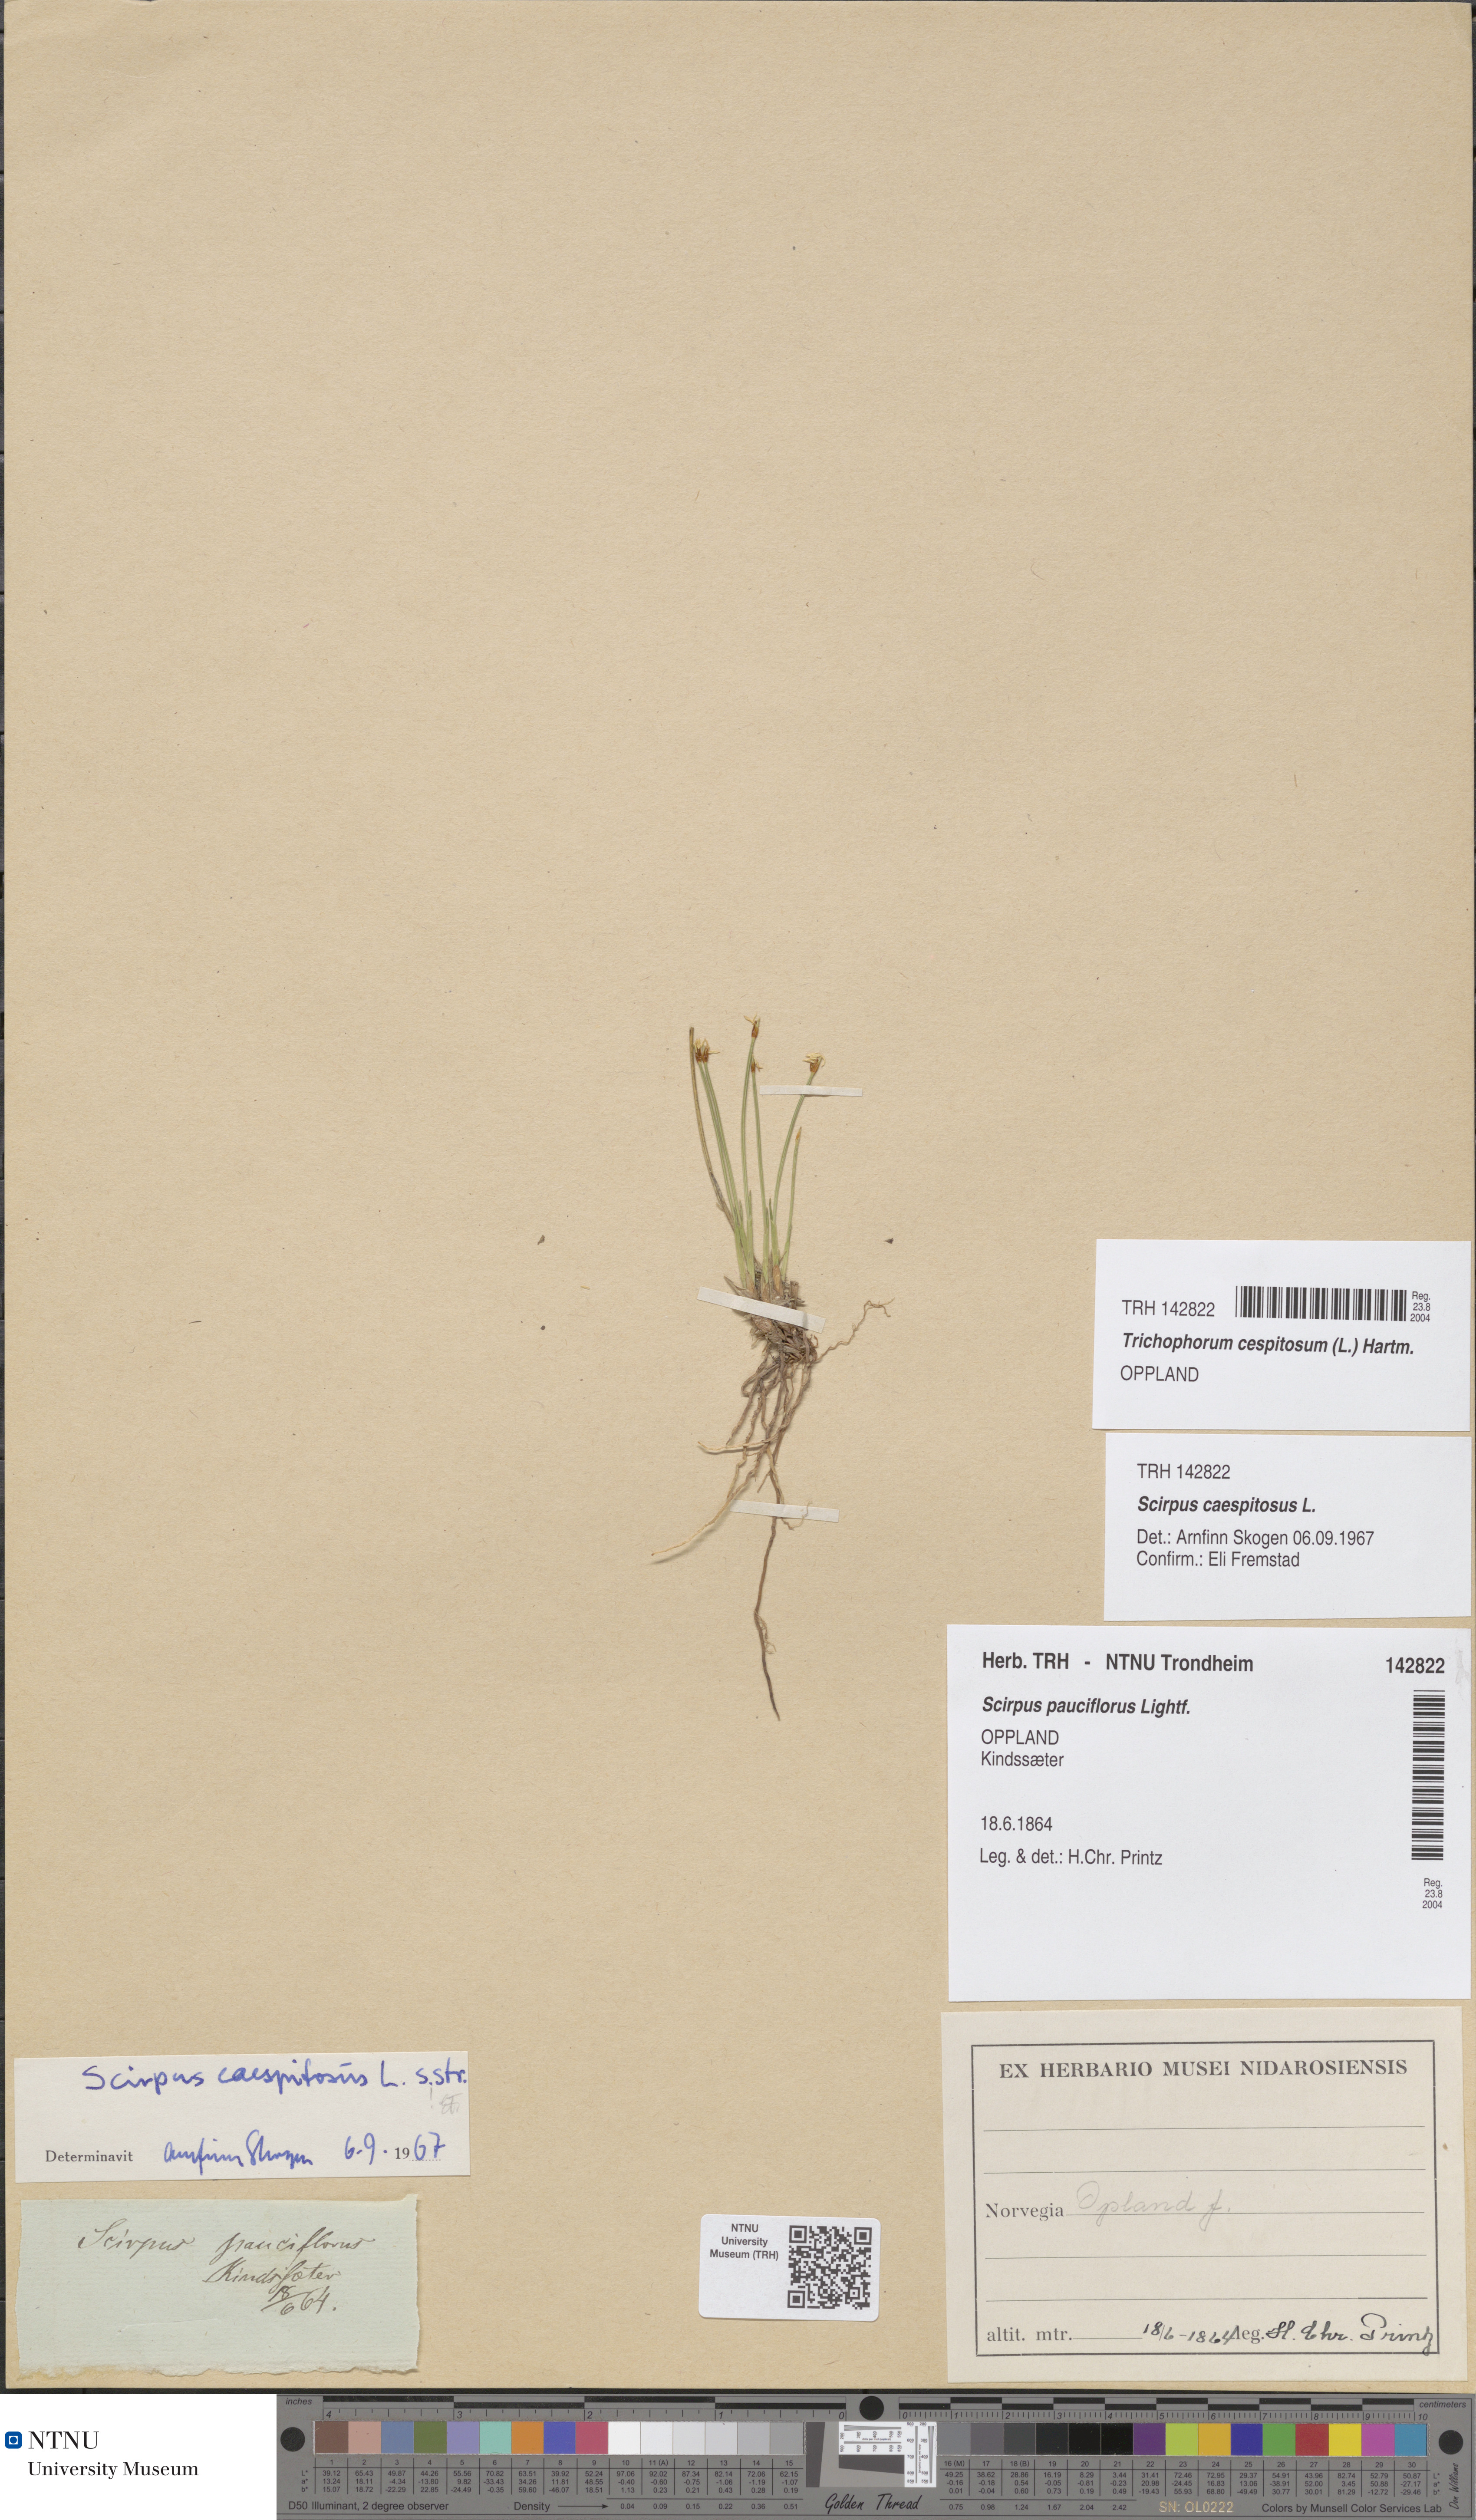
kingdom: Plantae
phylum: Tracheophyta
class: Liliopsida
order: Poales
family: Cyperaceae
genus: Trichophorum
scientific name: Trichophorum cespitosum
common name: Cespitose bulrush
